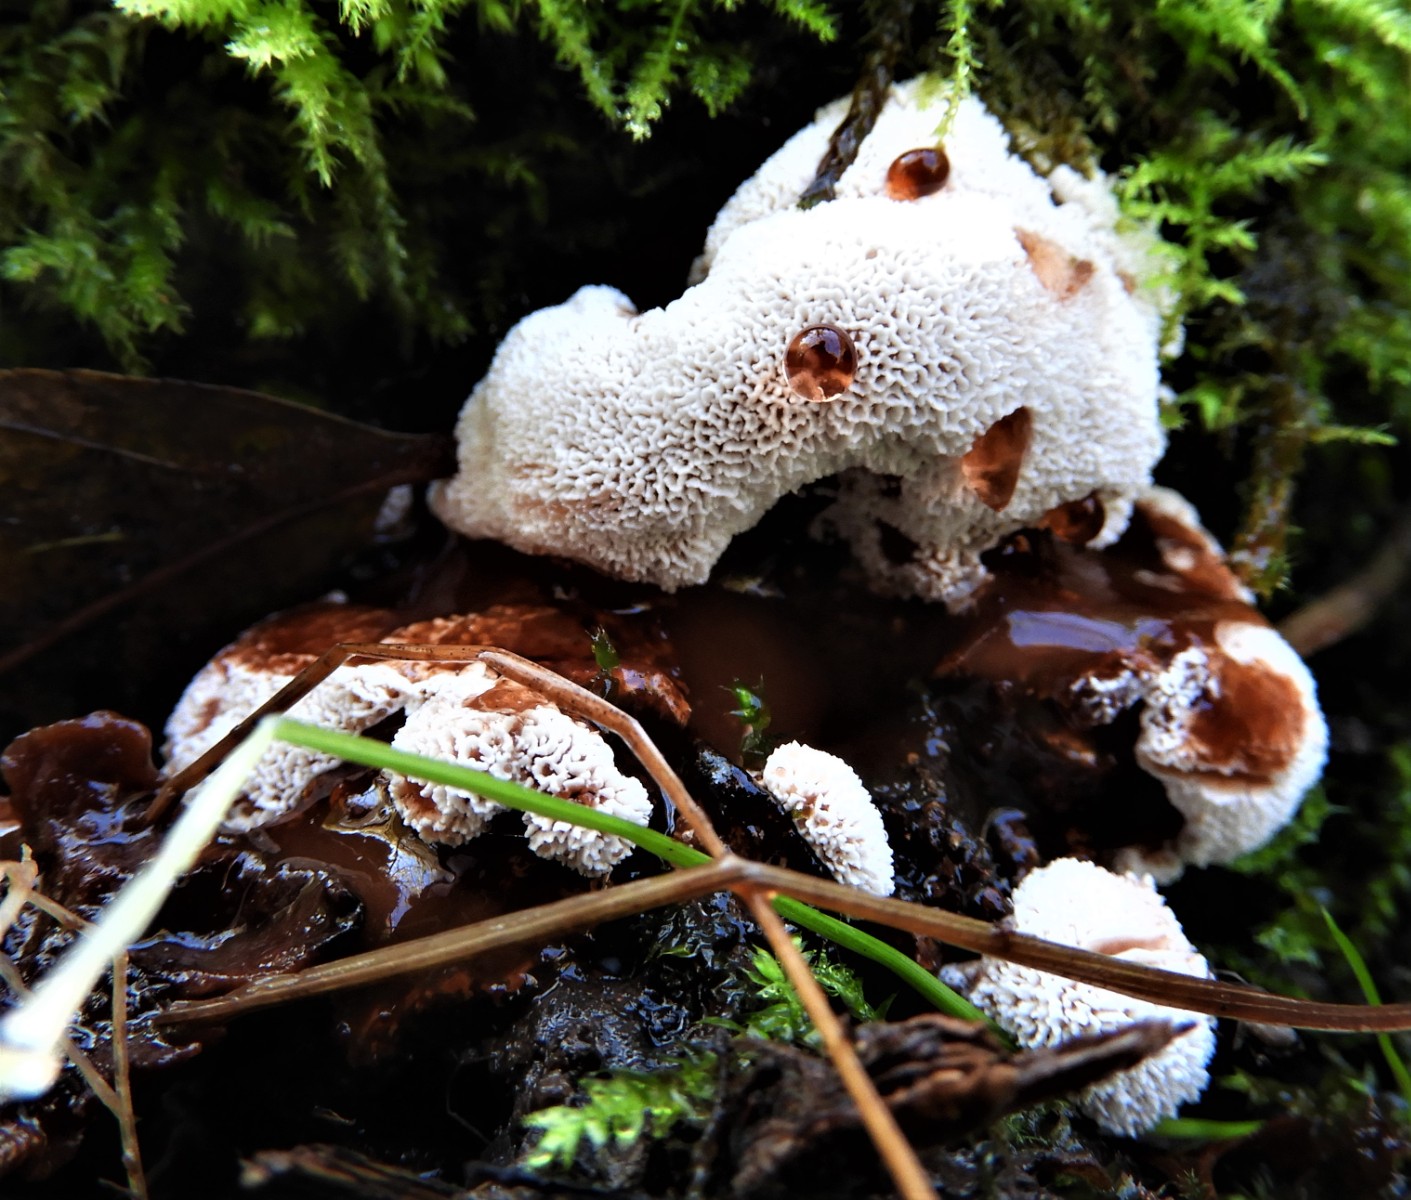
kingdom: Fungi
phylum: Basidiomycota
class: Agaricomycetes
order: Polyporales
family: Podoscyphaceae
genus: Abortiporus
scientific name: Abortiporus biennis
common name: rødmende pjalteporesvamp
